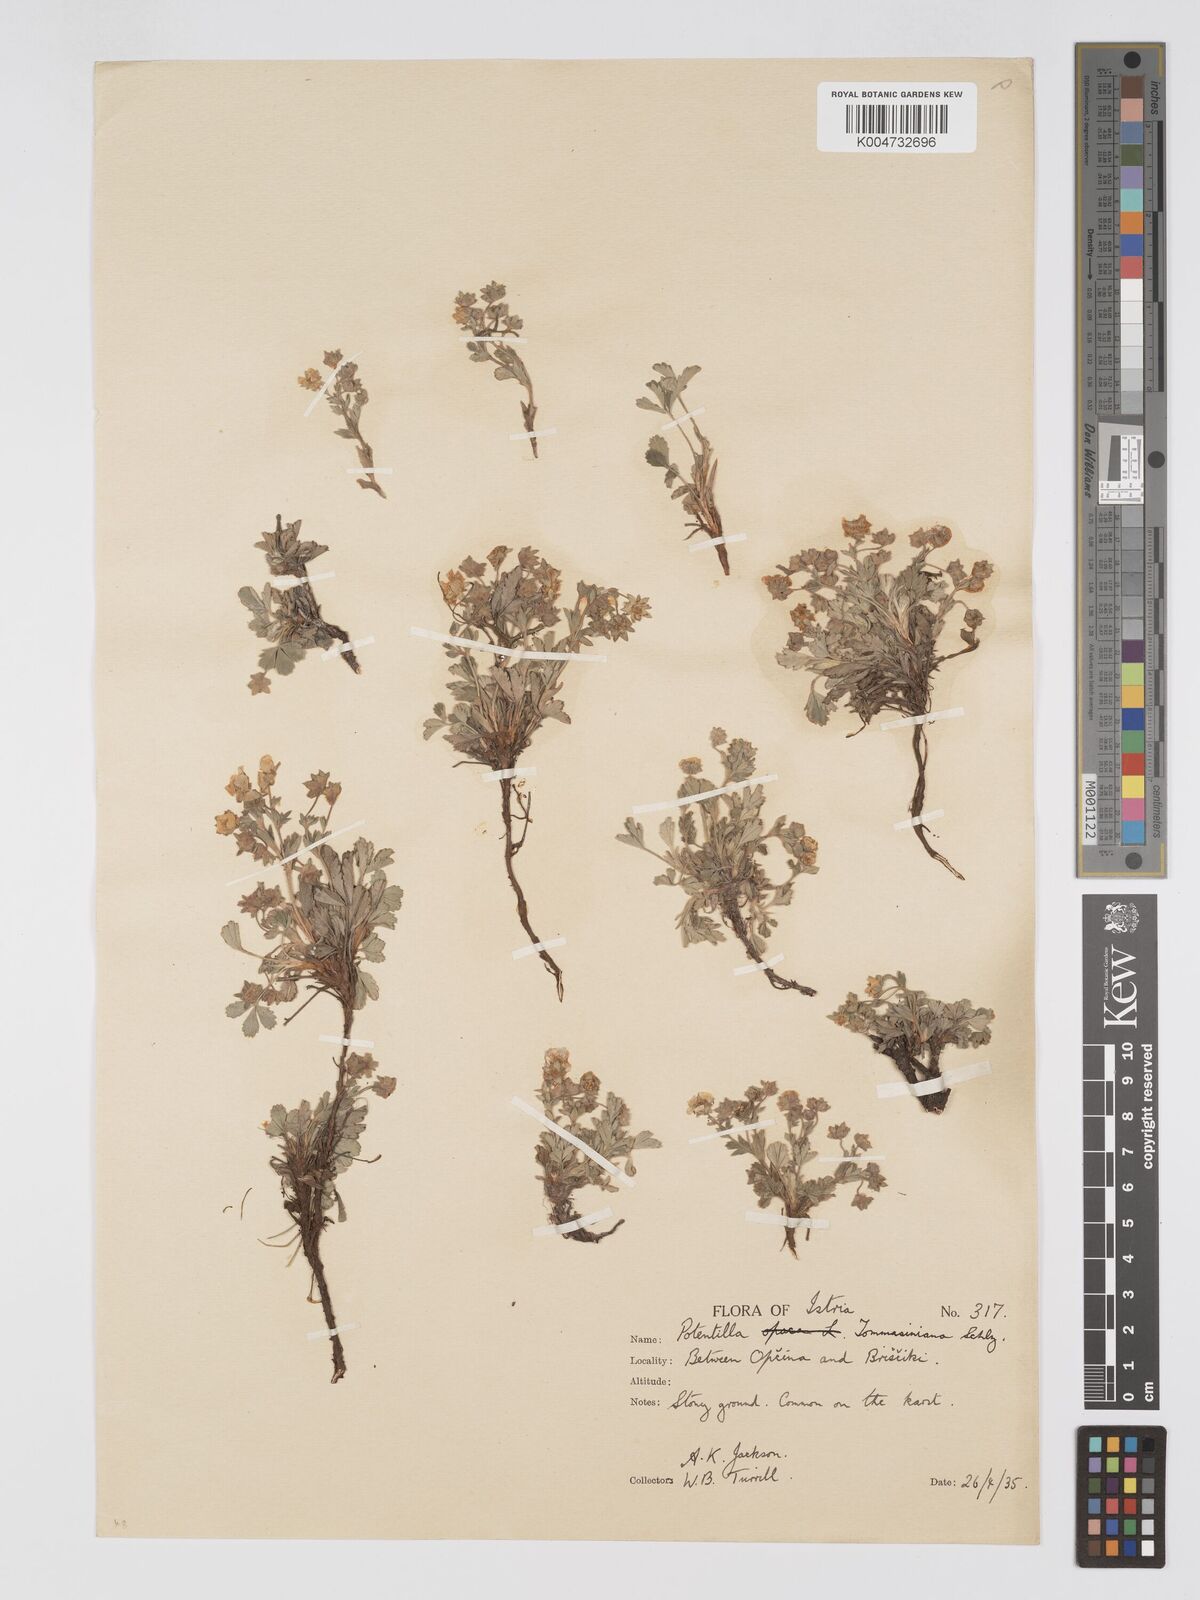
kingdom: Plantae
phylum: Tracheophyta
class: Magnoliopsida
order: Rosales
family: Rosaceae
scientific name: Rosaceae
